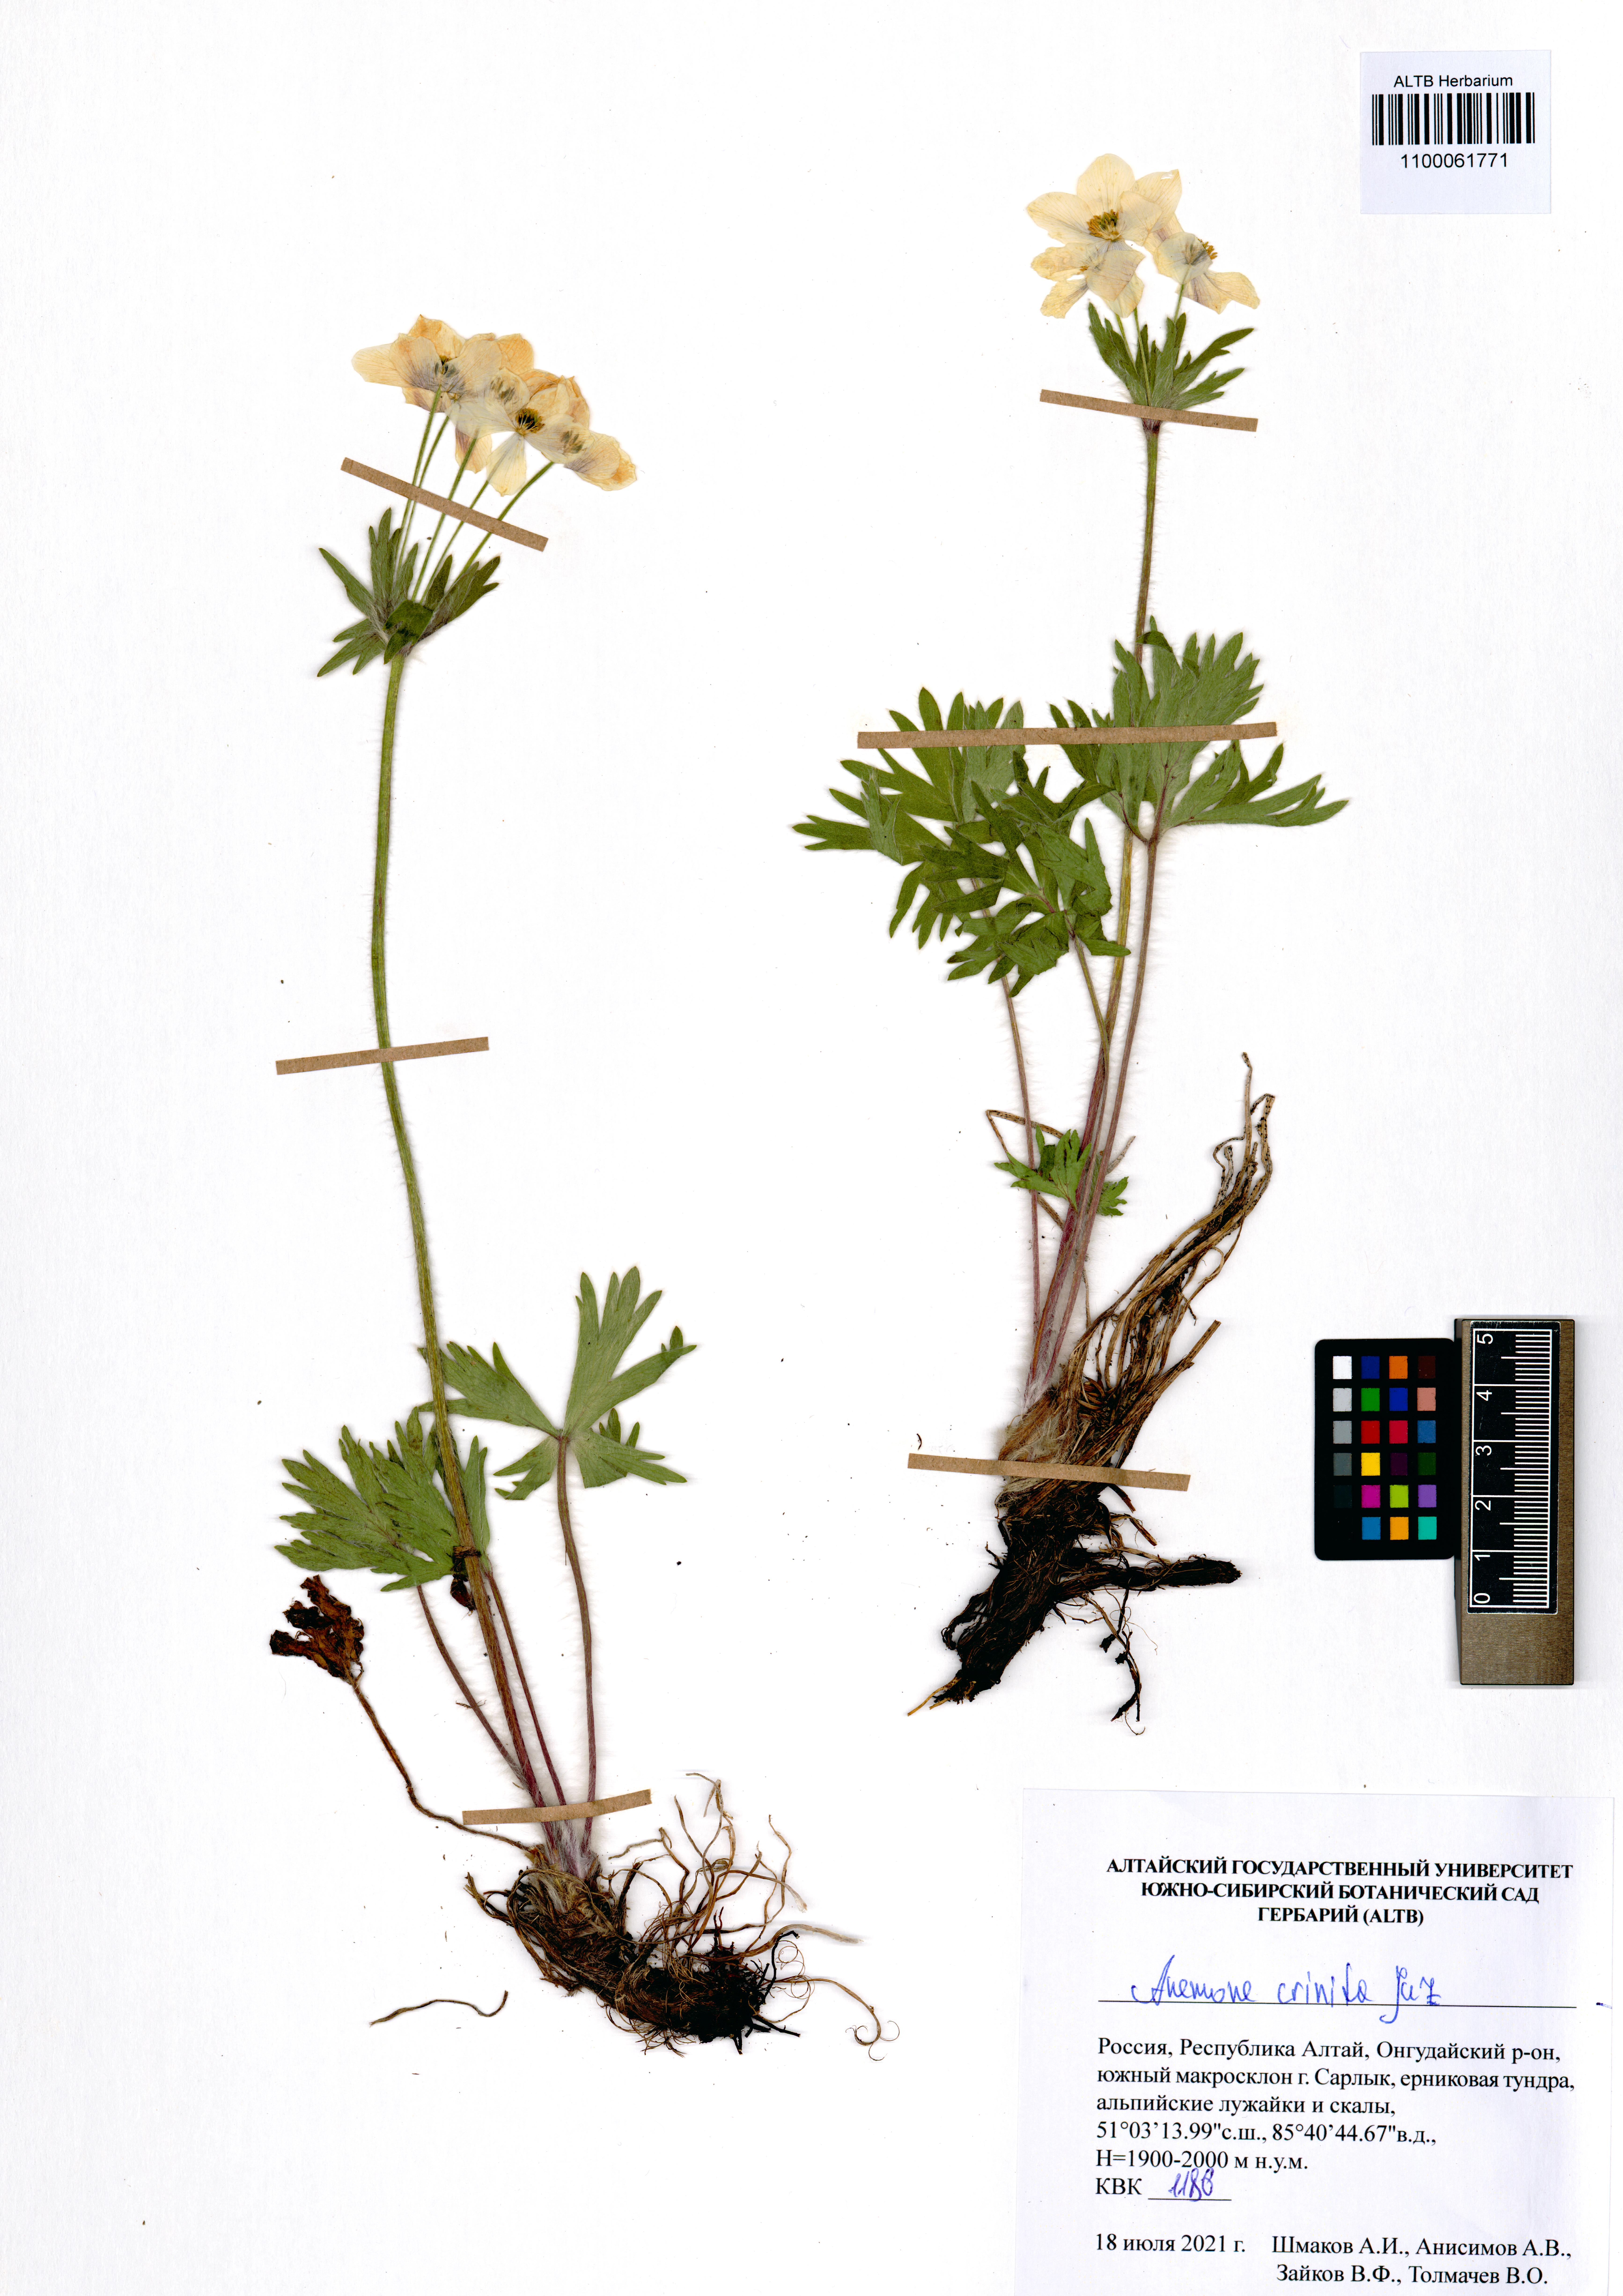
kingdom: Plantae
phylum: Tracheophyta
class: Magnoliopsida
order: Ranunculales
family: Ranunculaceae
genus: Anemonastrum
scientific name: Anemonastrum narcissiflorum
